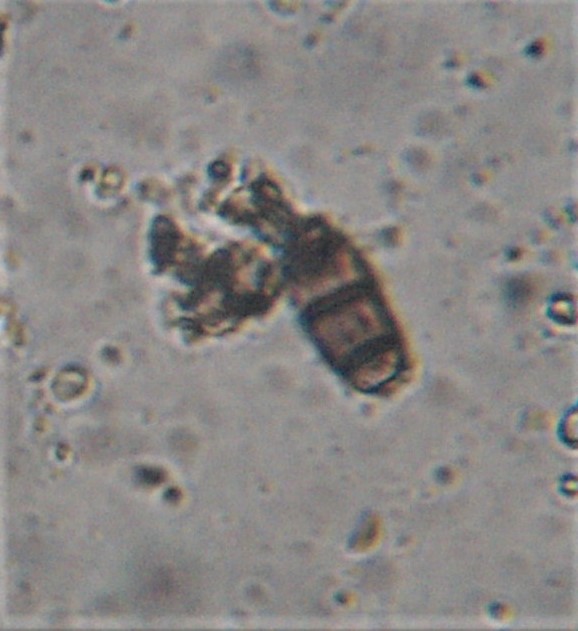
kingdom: Fungi
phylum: Ascomycota
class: Sordariomycetes
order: Coronophorales
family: Chaetosphaerellaceae
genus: Chaetosphaerella
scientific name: Chaetosphaerella phaeostroma
